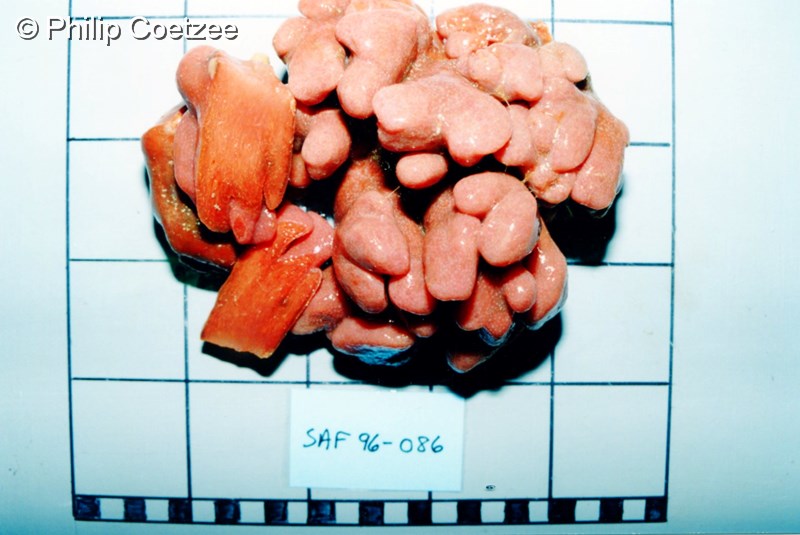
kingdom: Animalia
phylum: Chordata
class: Ascidiacea
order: Aplousobranchia
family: Pseudodistomidae
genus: Pseudodistoma
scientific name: Pseudodistoma
